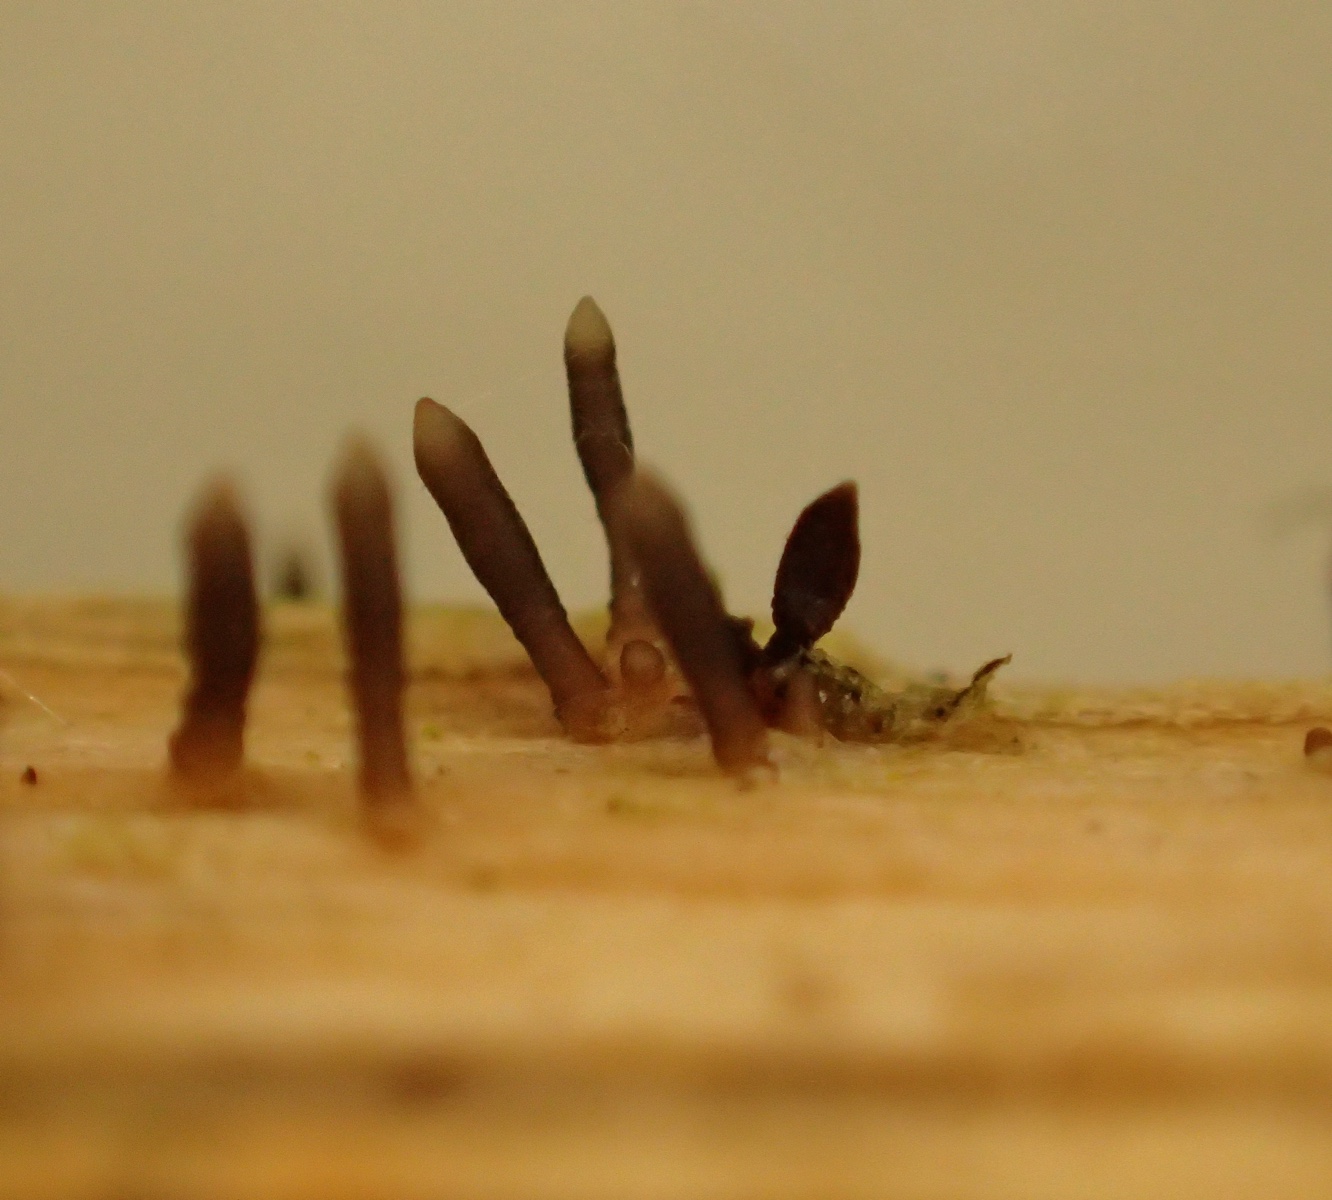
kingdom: Fungi
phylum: Ascomycota
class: Dothideomycetes
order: Acrospermales
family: Acrospermaceae
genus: Acrospermum
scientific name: Acrospermum compressum
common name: nælde-stængeltunge
